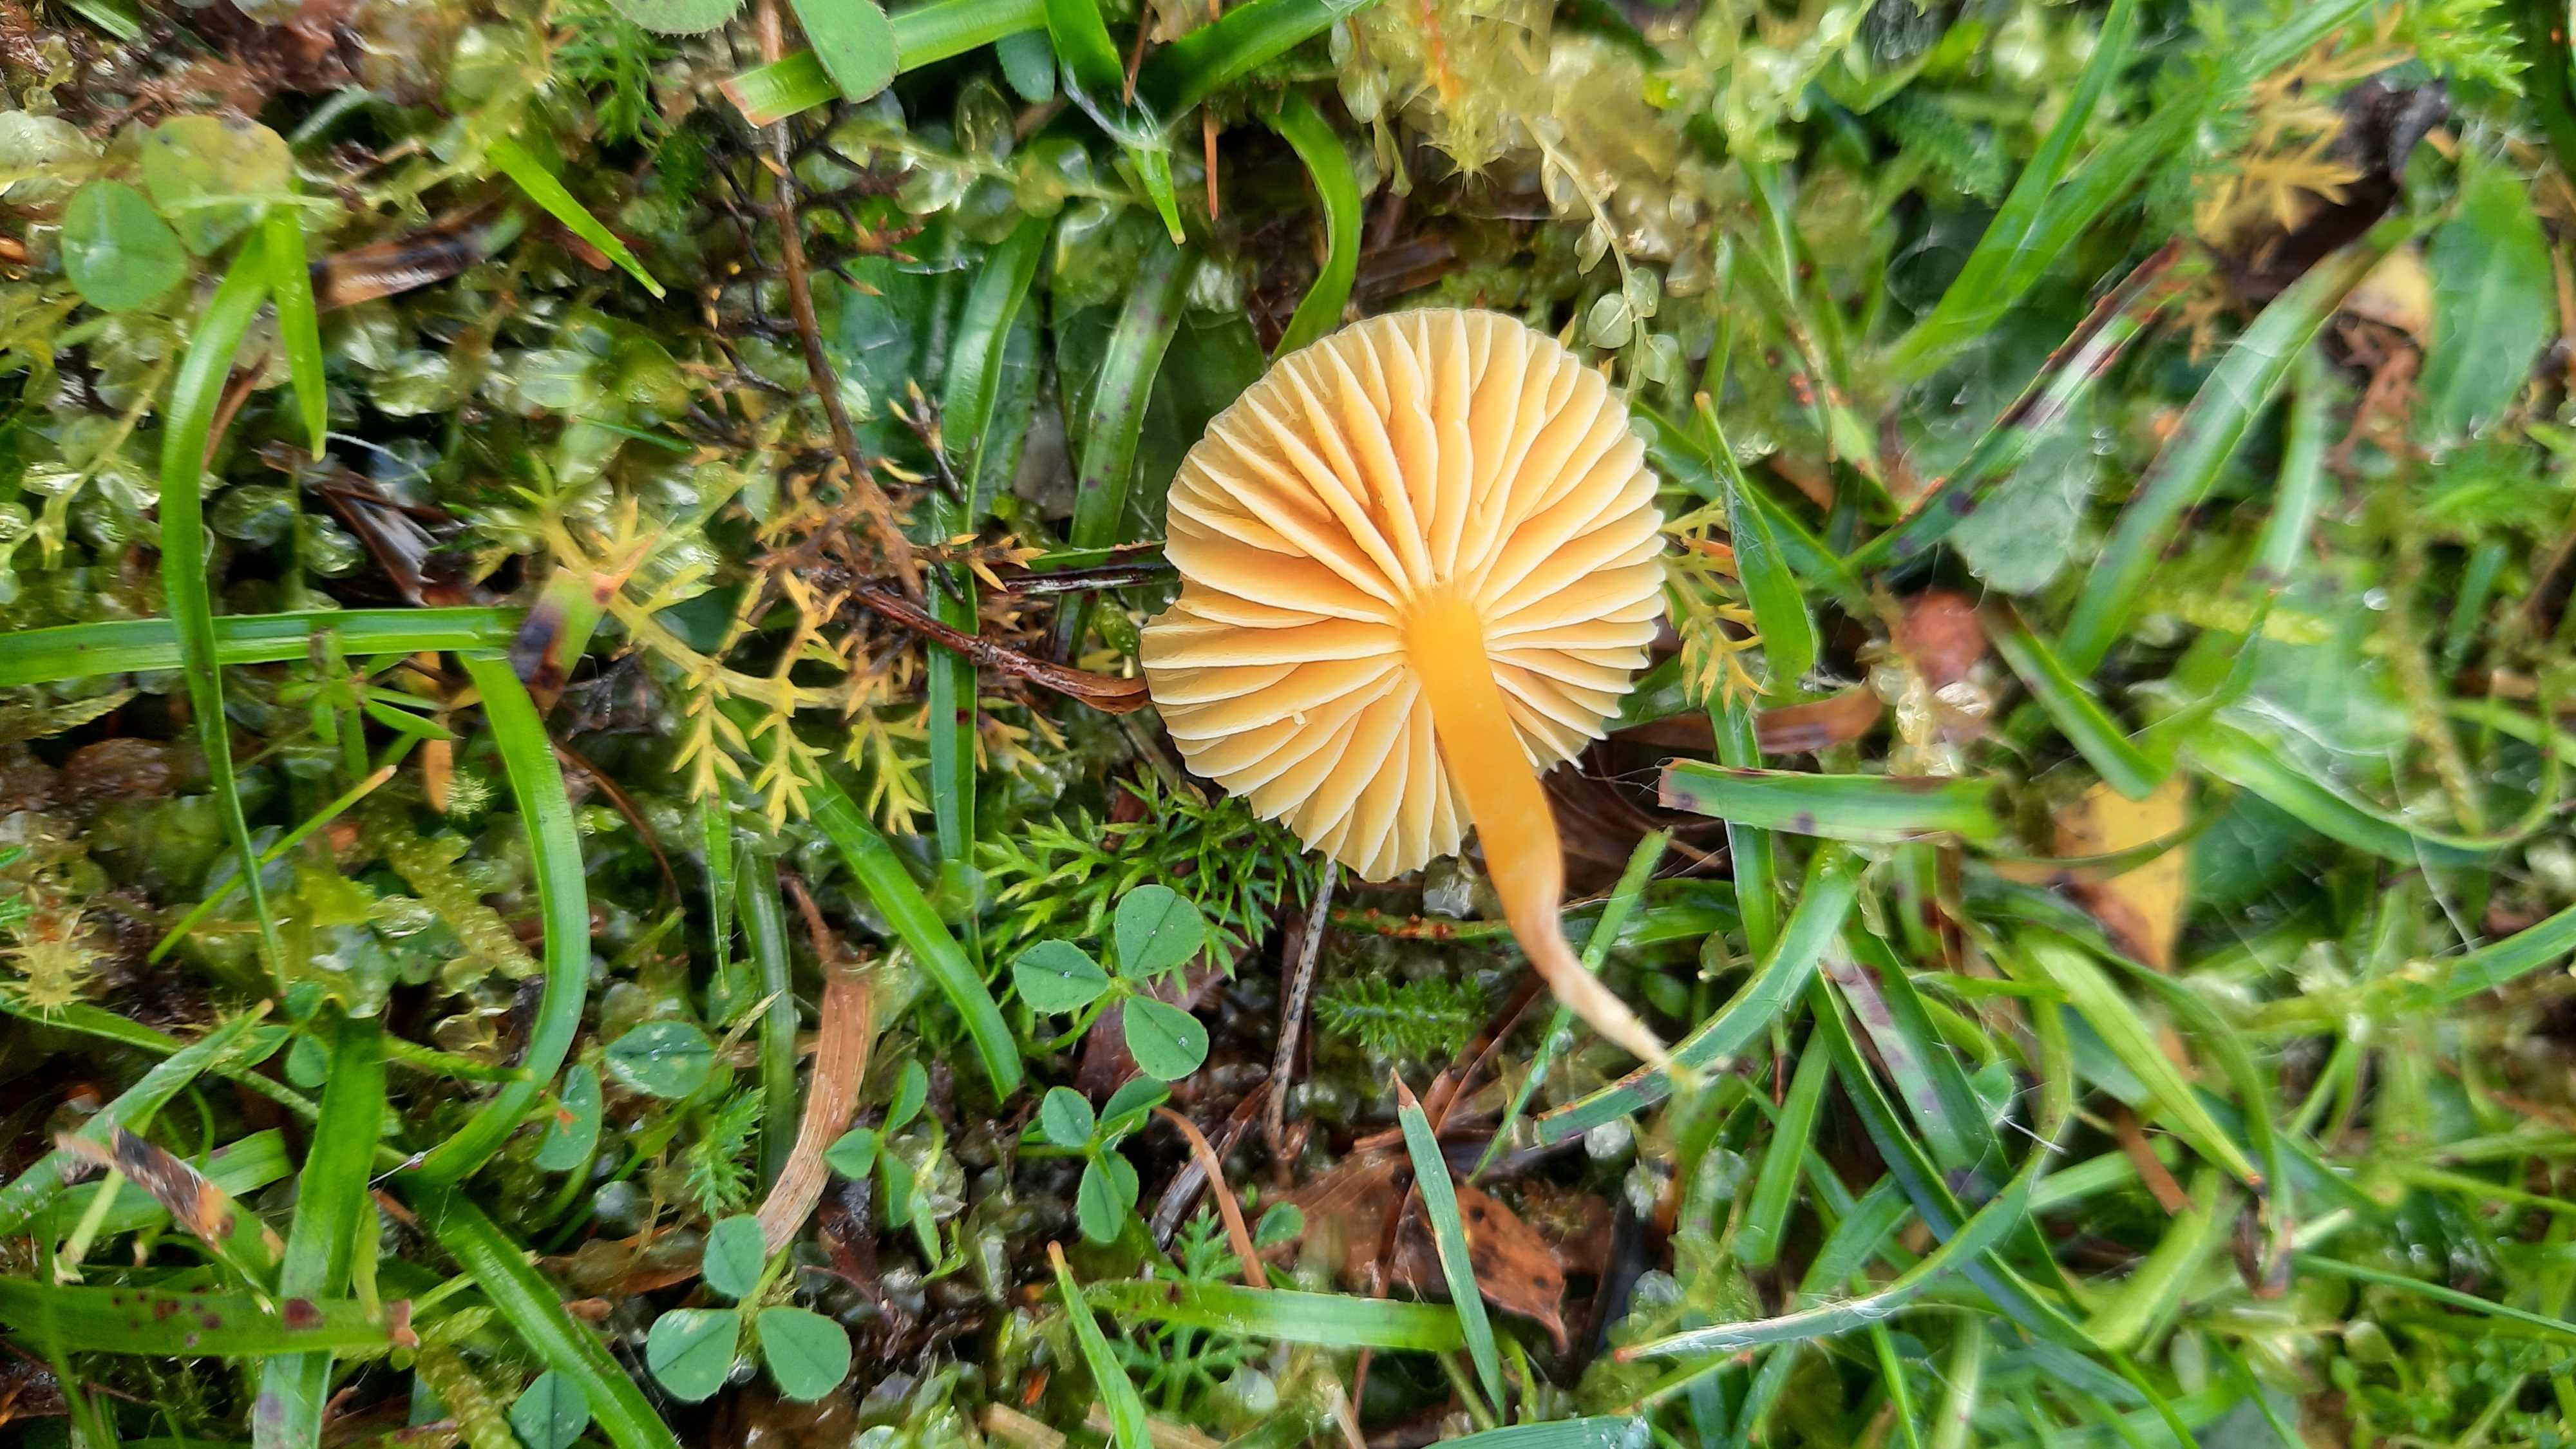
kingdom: Fungi
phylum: Basidiomycota
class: Agaricomycetes
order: Agaricales
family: Hygrophoraceae
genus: Hygrocybe
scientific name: Hygrocybe ceracea
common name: voksgul vokshat
